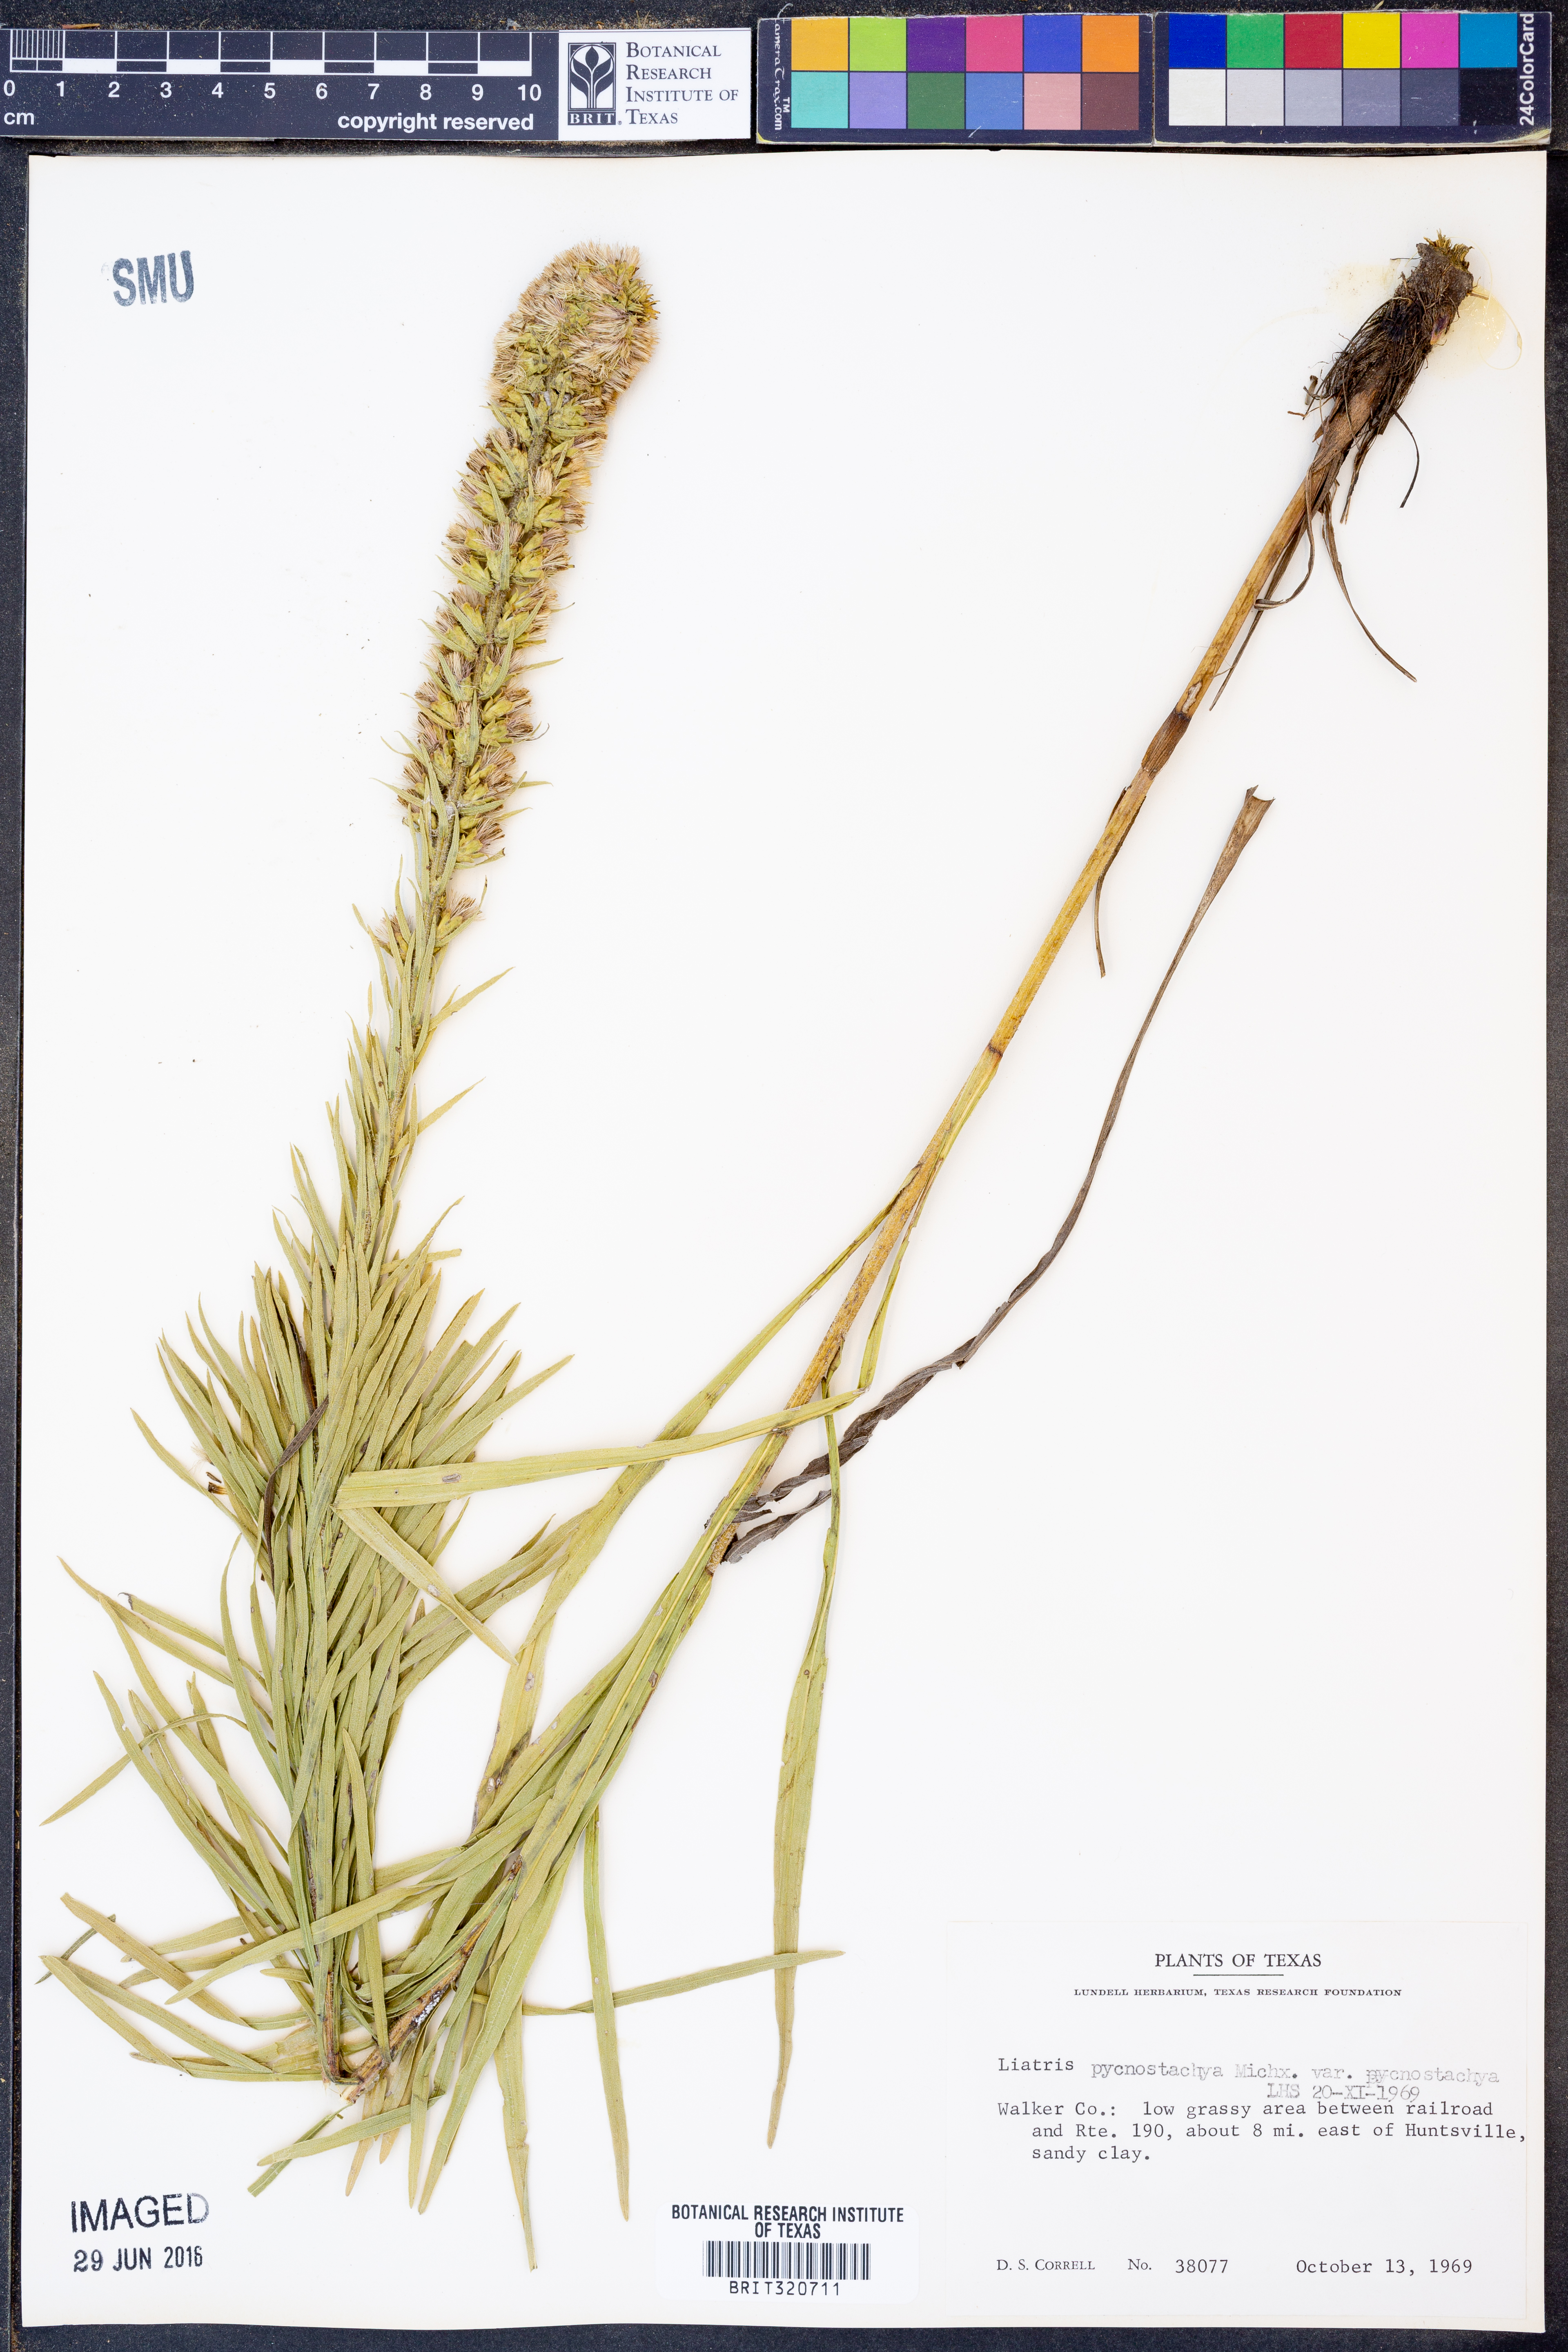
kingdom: Plantae
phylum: Tracheophyta
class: Magnoliopsida
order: Asterales
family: Asteraceae
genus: Liatris
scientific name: Liatris pycnostachya
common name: Cattail gayfeather
